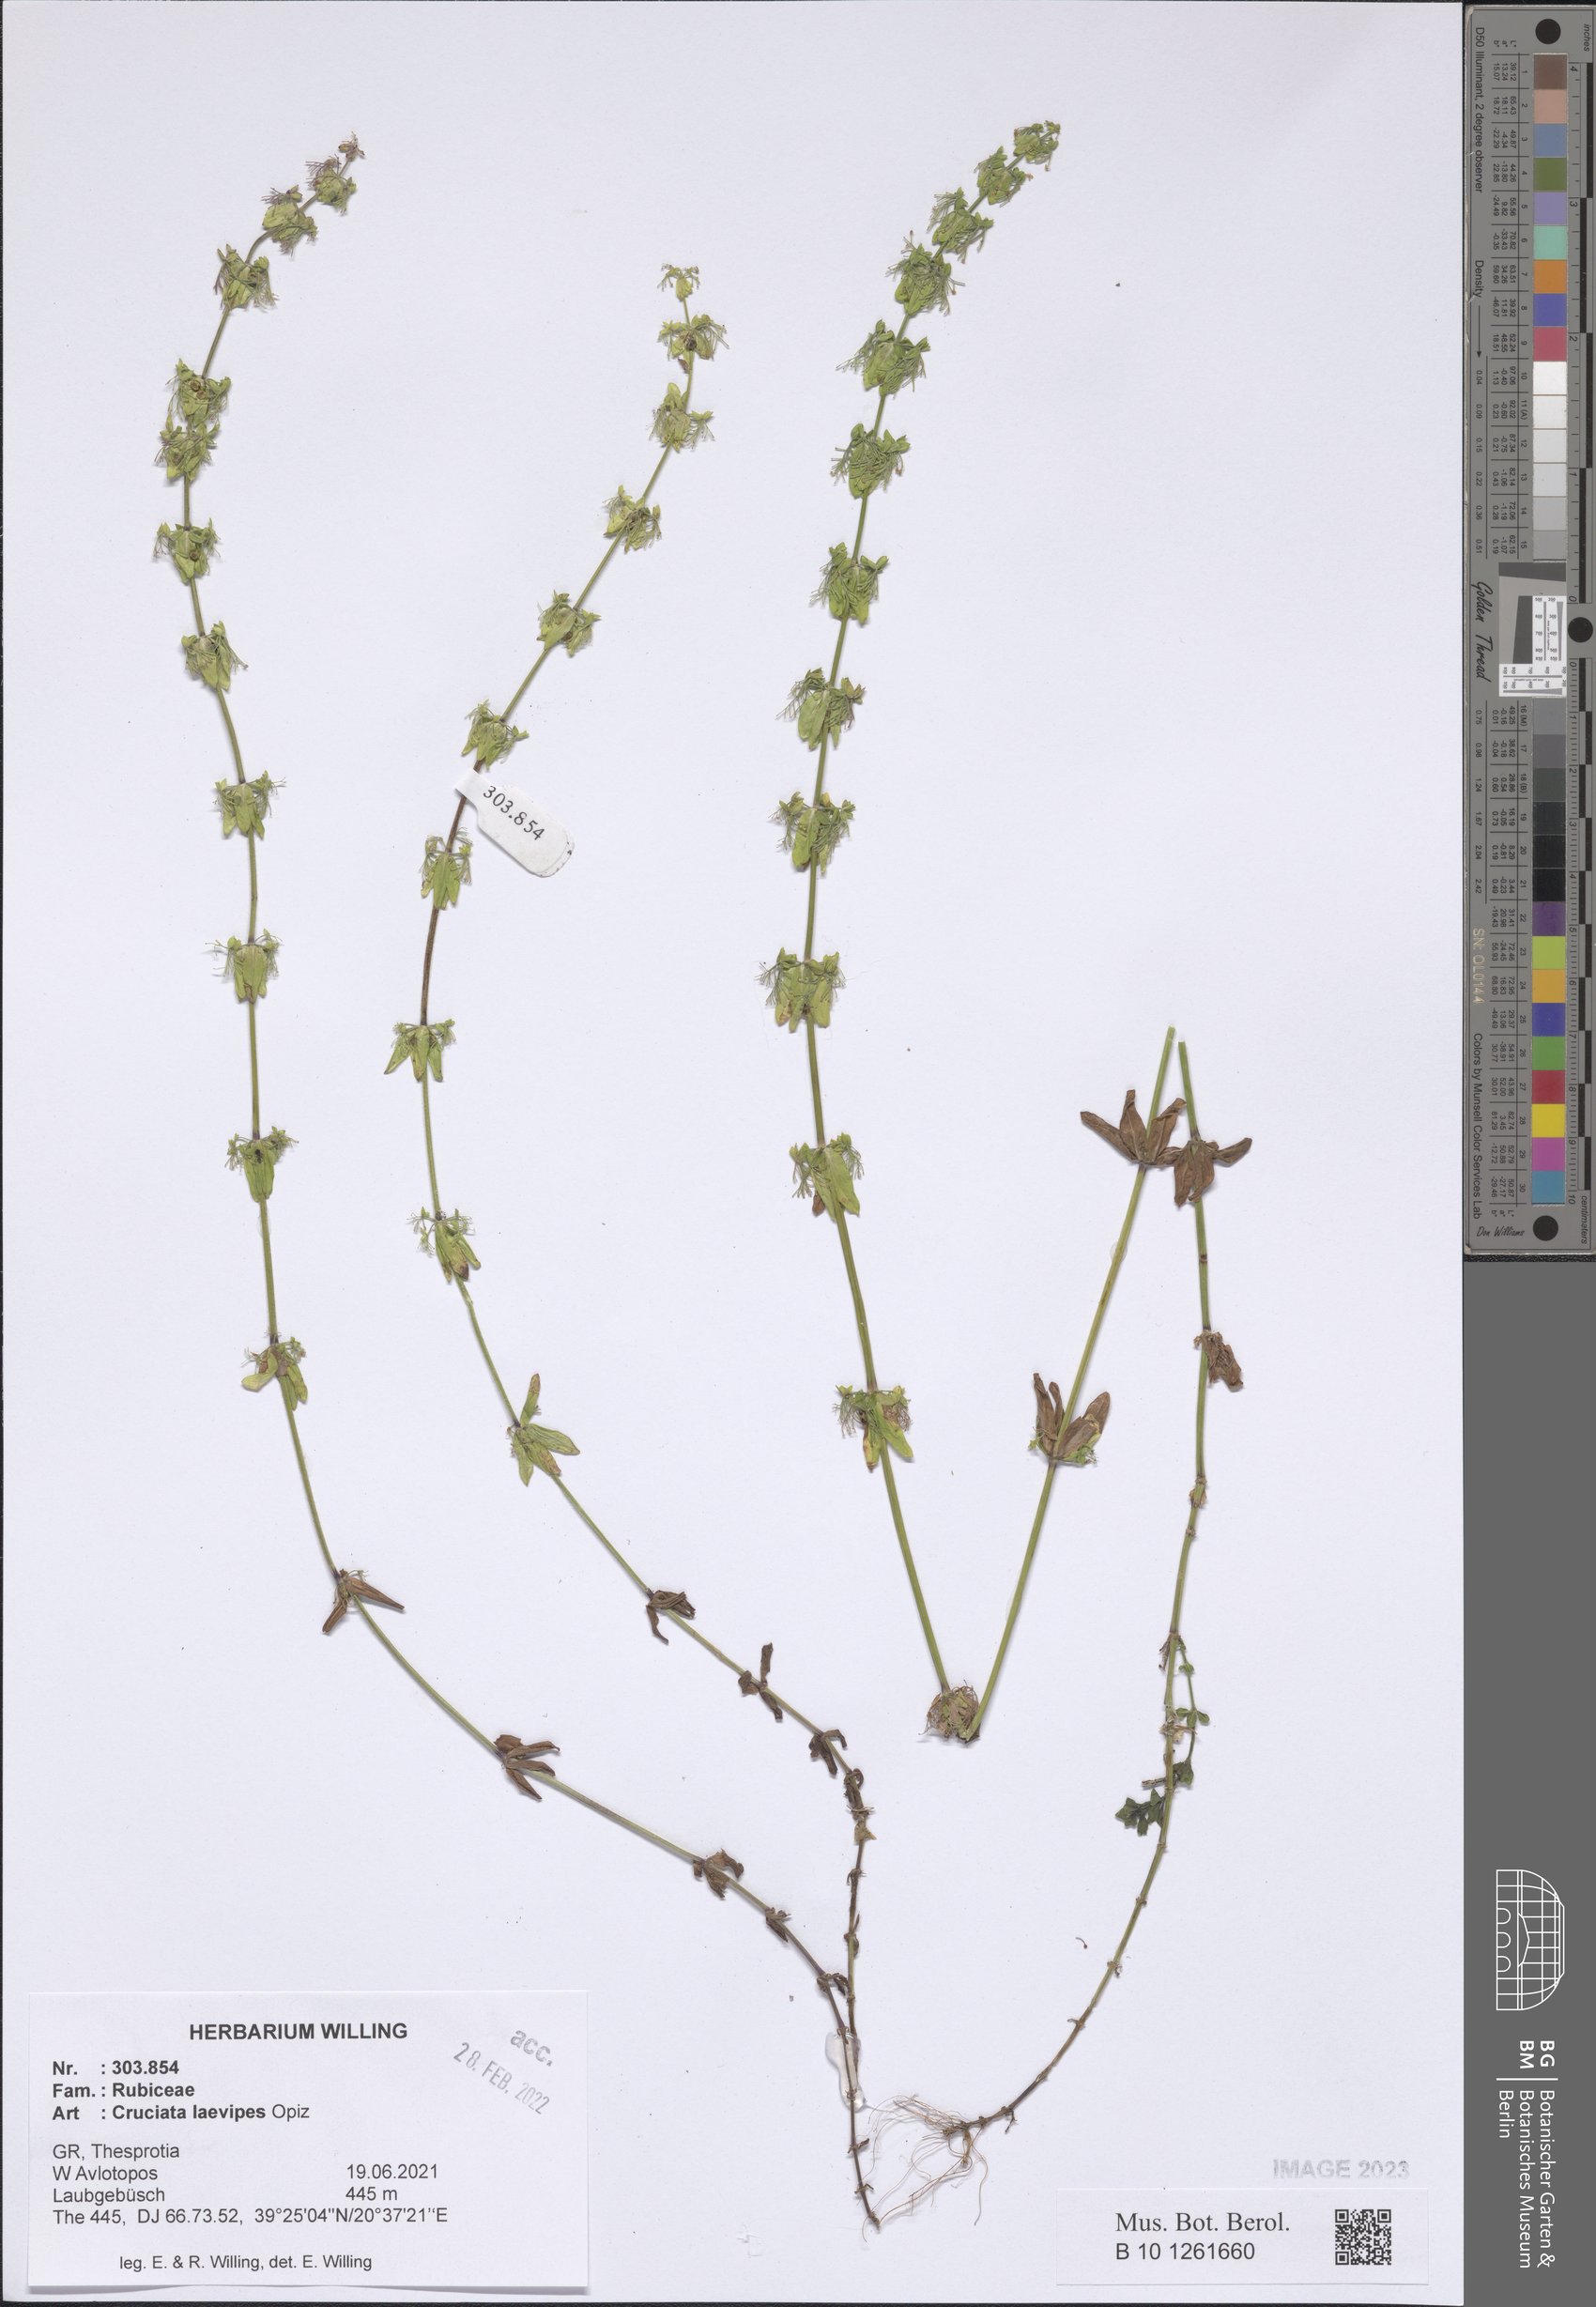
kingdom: Plantae
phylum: Tracheophyta
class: Magnoliopsida
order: Gentianales
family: Rubiaceae
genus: Cruciata
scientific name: Cruciata laevipes
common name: Crosswort
